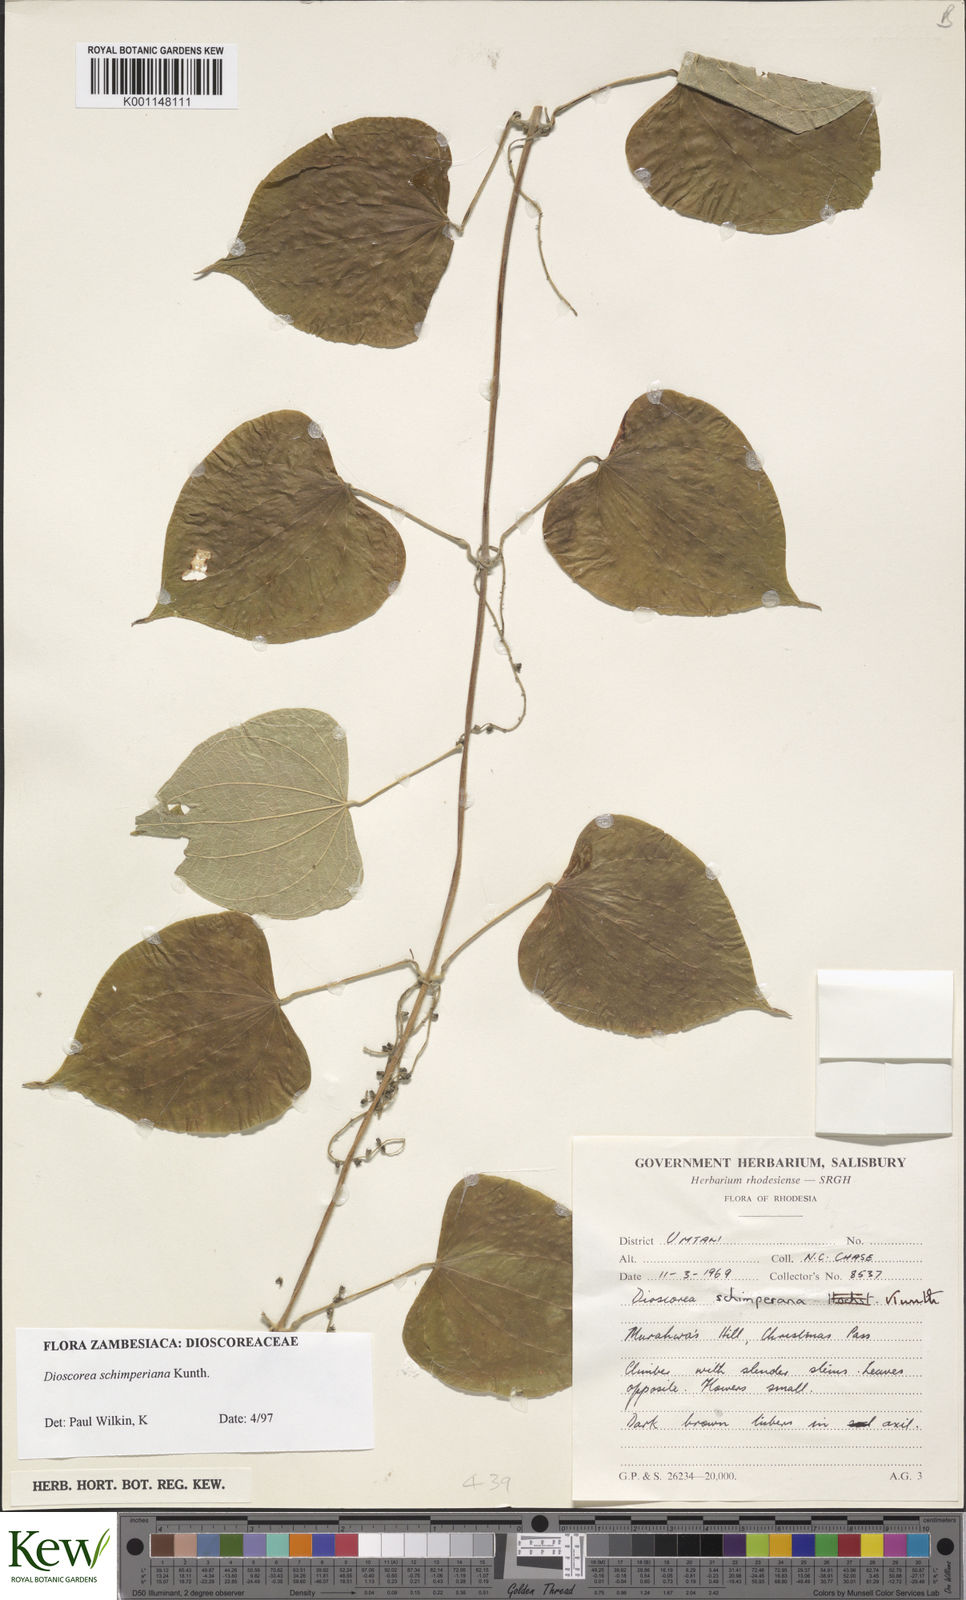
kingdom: Plantae
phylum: Tracheophyta
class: Liliopsida
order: Dioscoreales
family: Dioscoreaceae
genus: Dioscorea
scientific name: Dioscorea schimperiana
